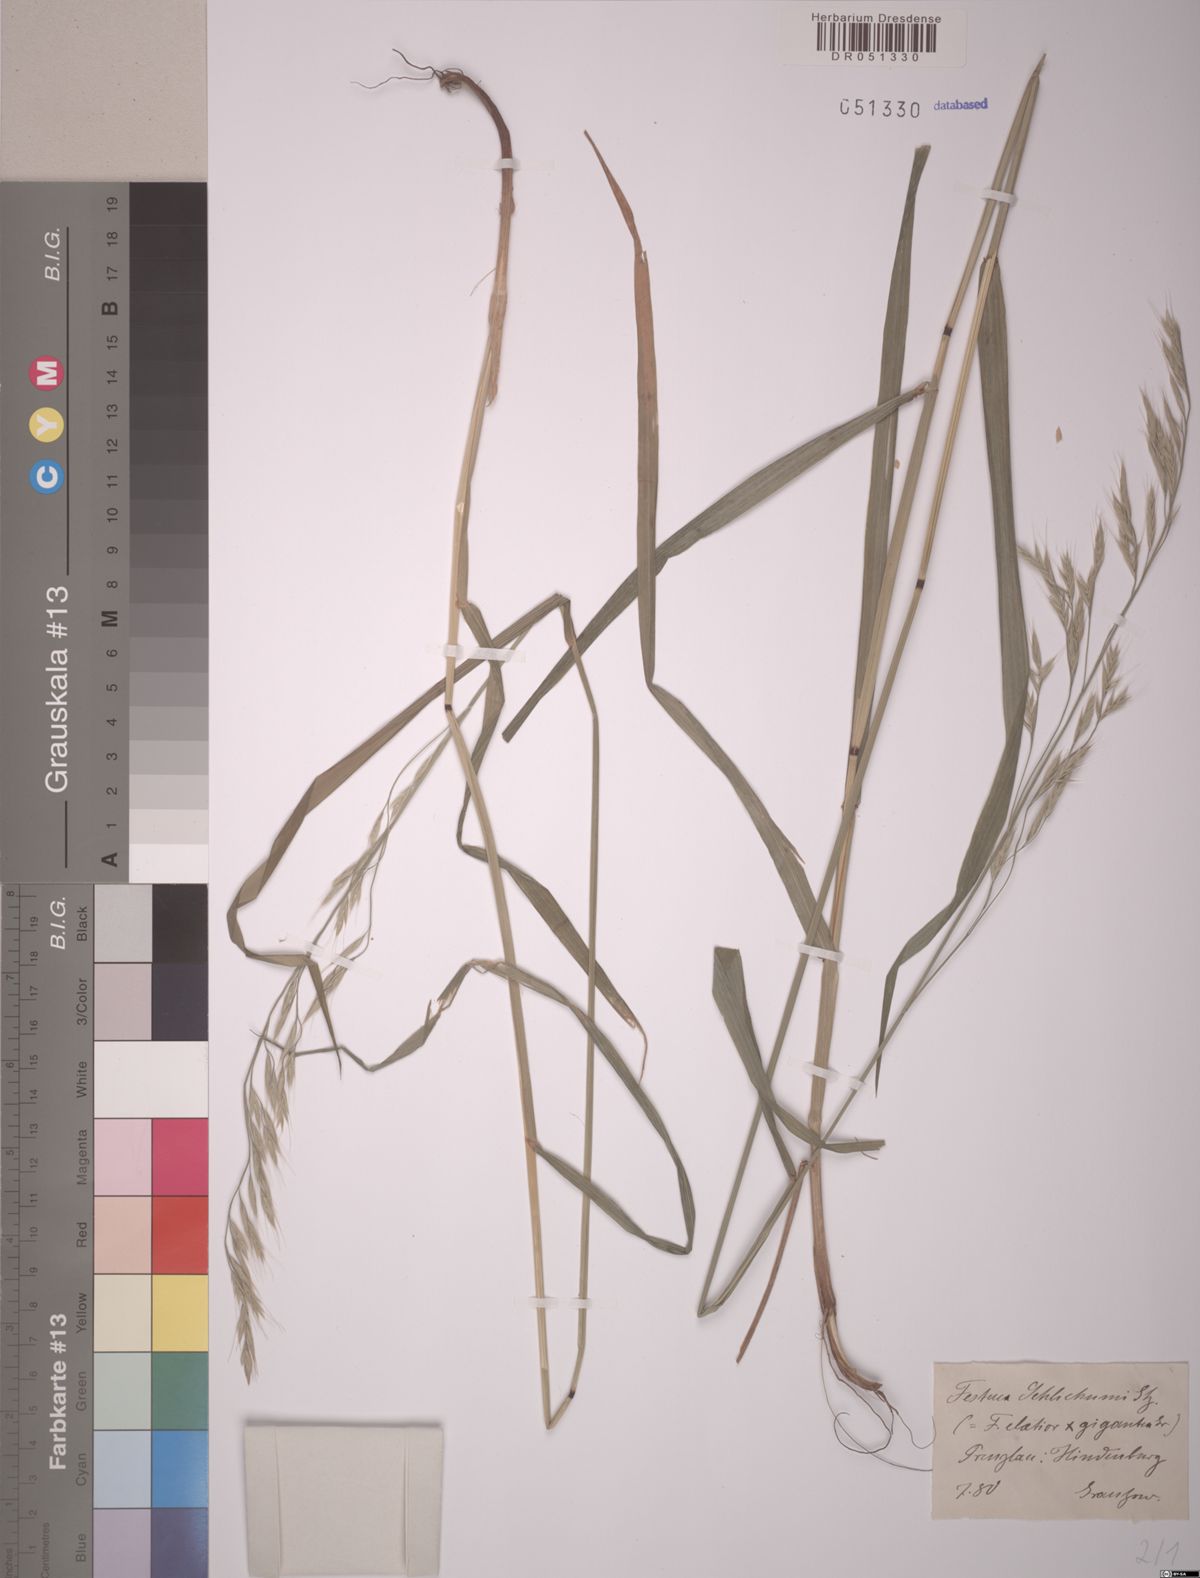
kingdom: Plantae
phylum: Tracheophyta
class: Liliopsida
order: Poales
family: Poaceae
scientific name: Poaceae
